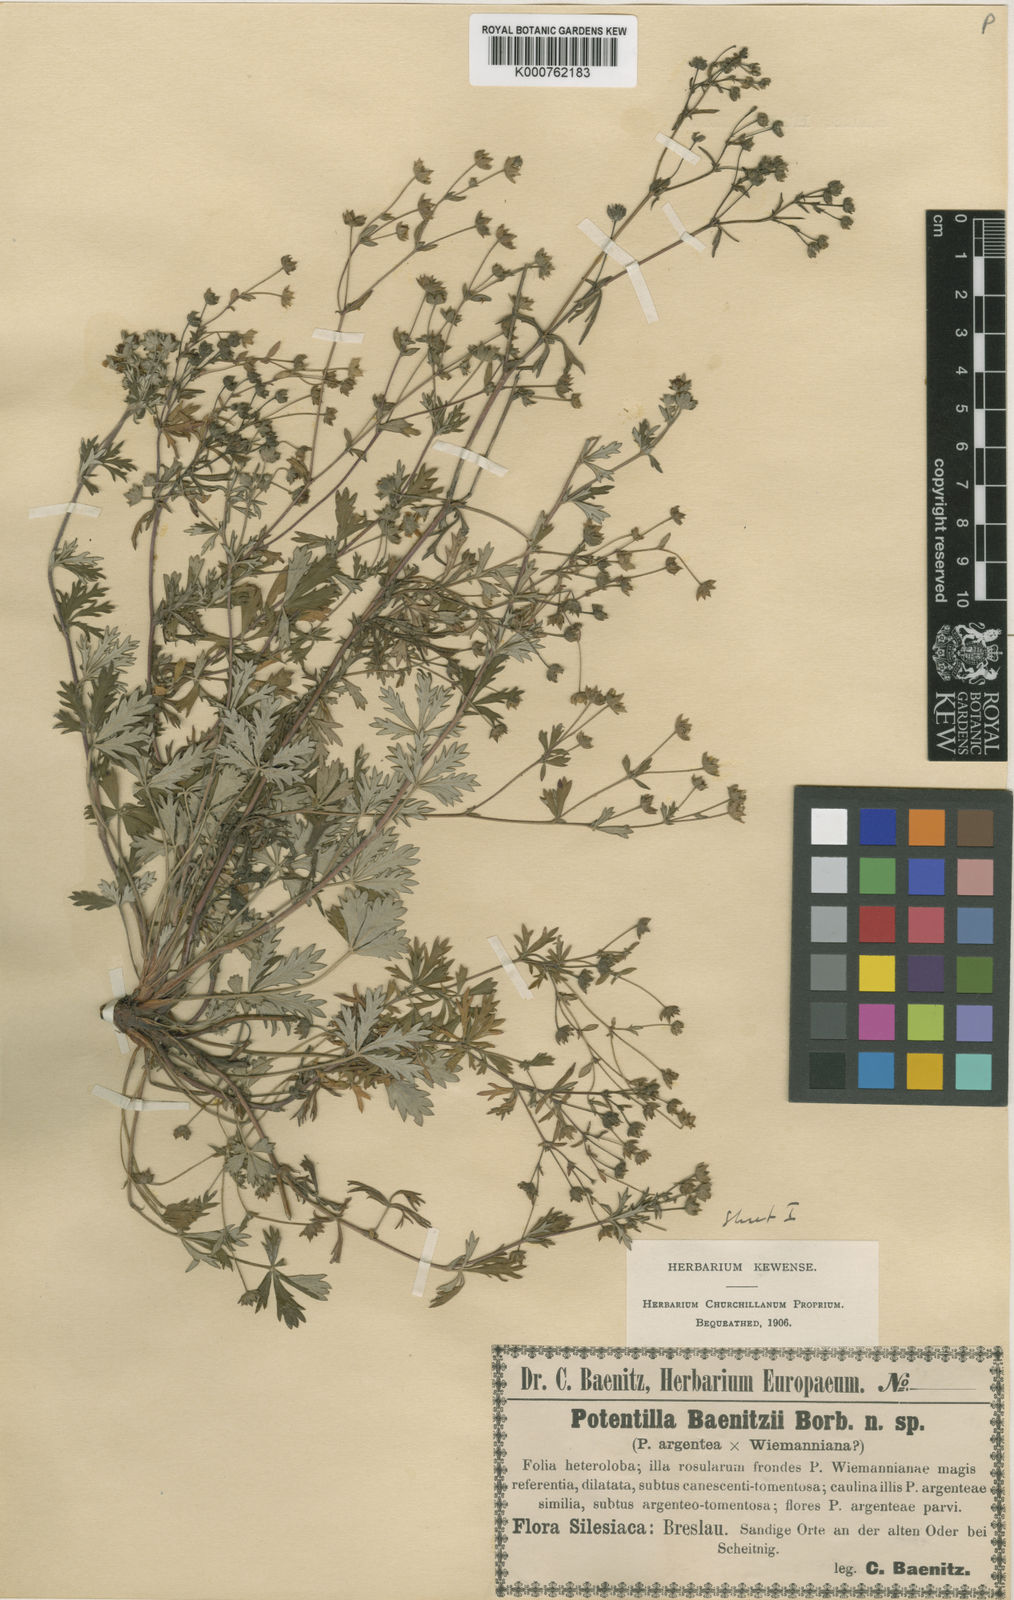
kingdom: Plantae
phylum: Tracheophyta
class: Magnoliopsida
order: Rosales
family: Rosaceae
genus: Potentilla
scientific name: Potentilla argentea
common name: Hoary cinquefoil
